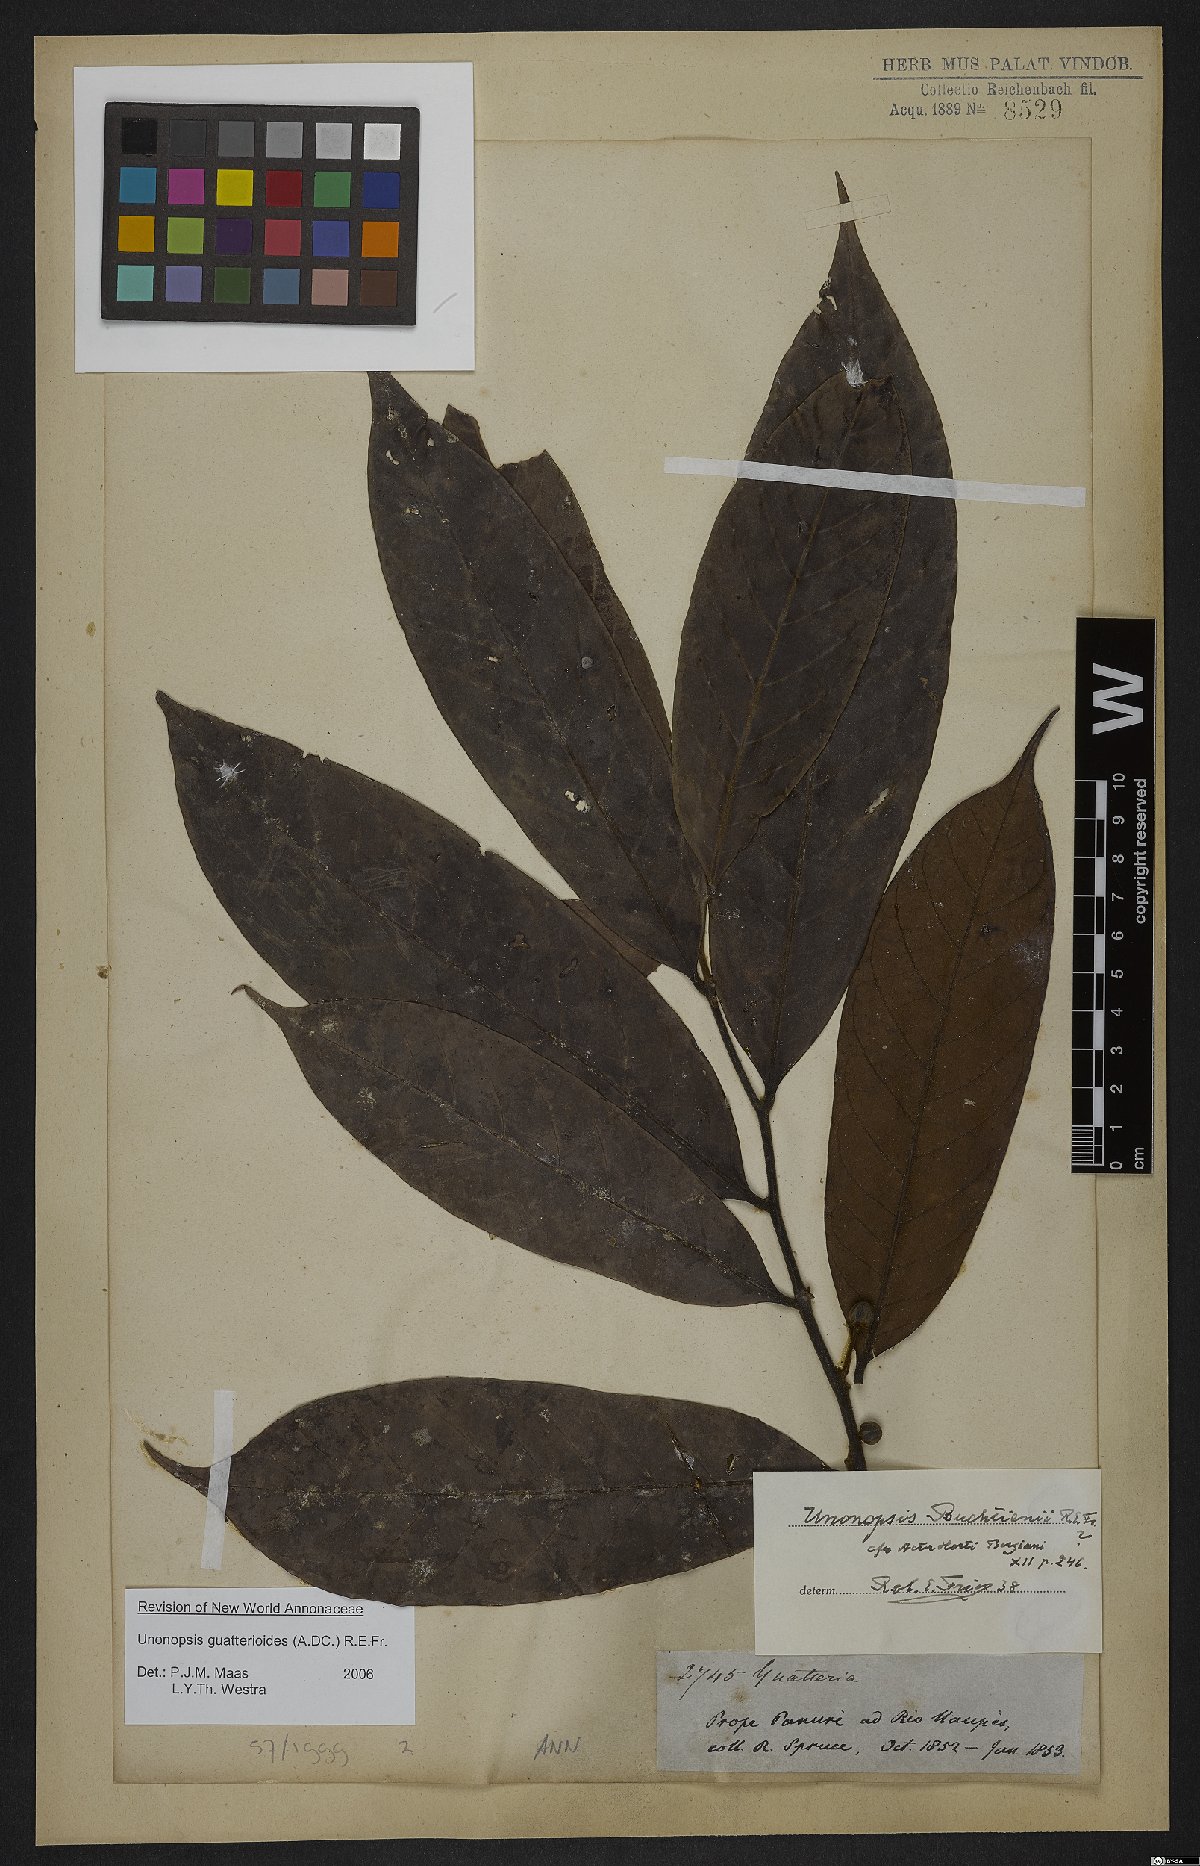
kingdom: Plantae
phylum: Tracheophyta
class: Magnoliopsida
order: Magnoliales
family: Annonaceae
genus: Unonopsis
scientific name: Unonopsis guatterioides
